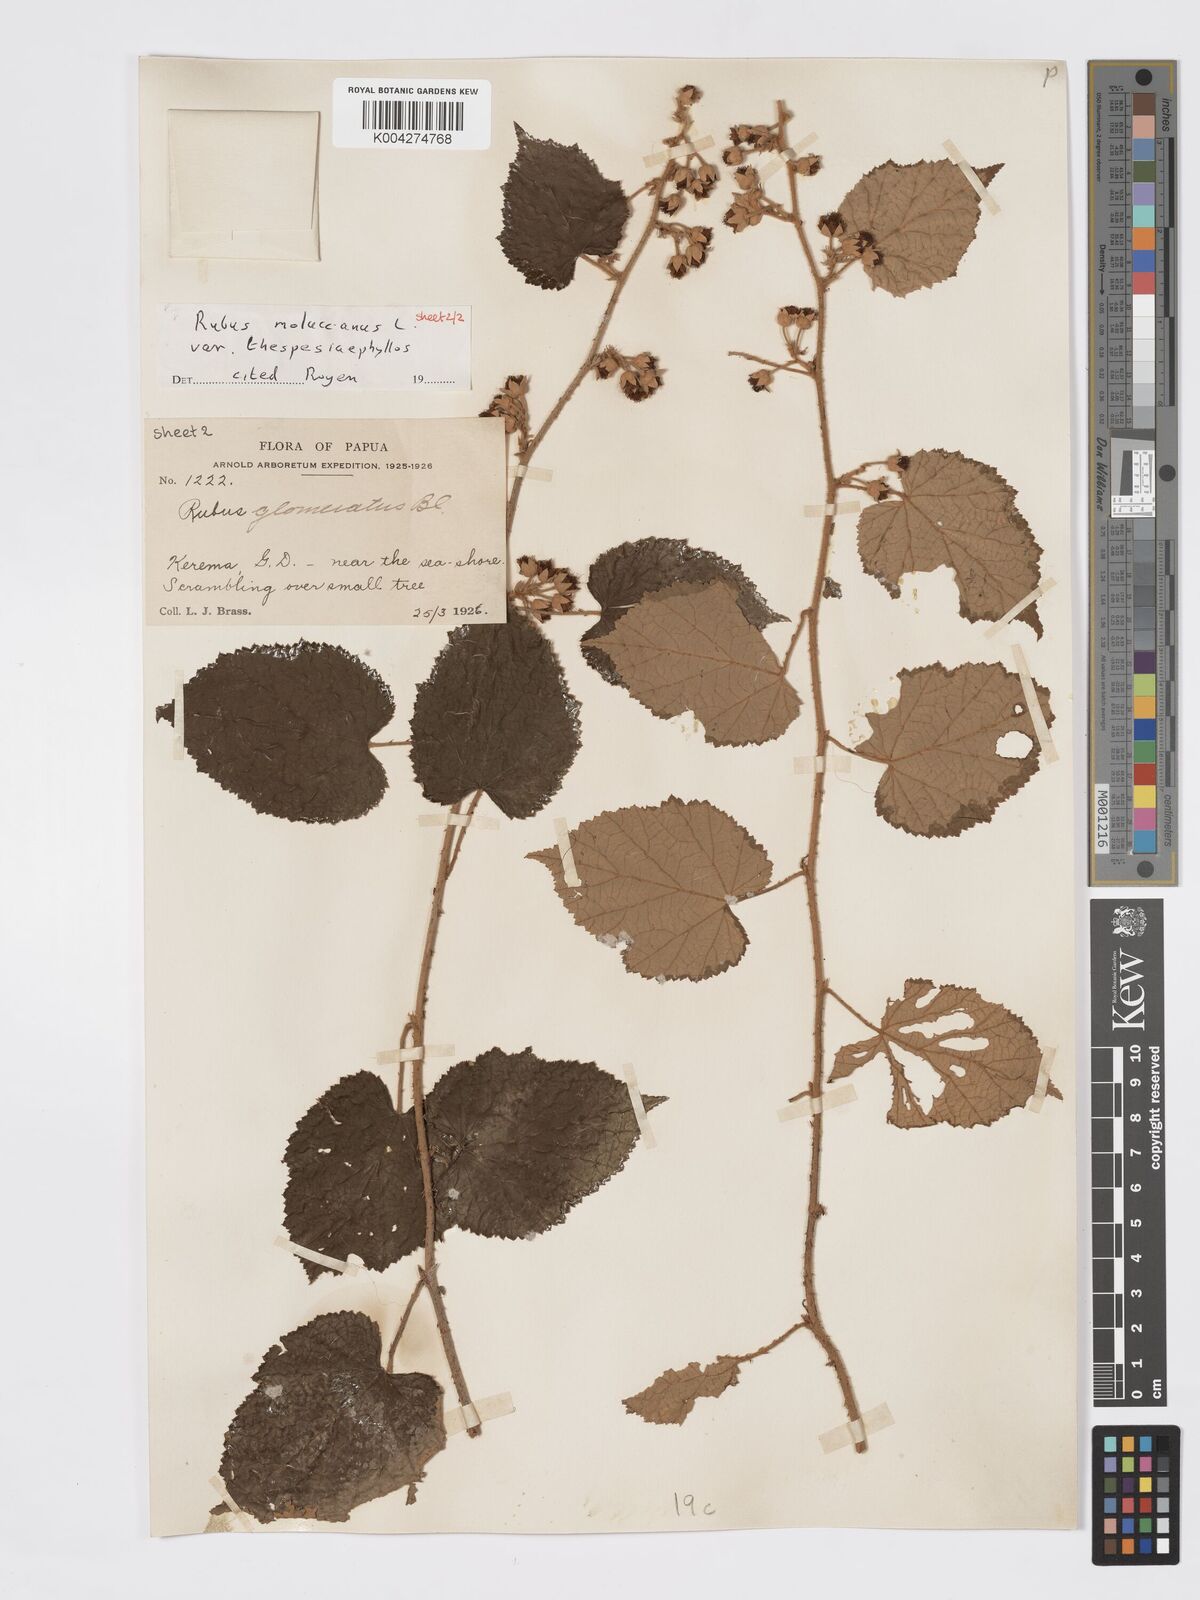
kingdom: Plantae
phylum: Tracheophyta
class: Magnoliopsida
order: Rosales
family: Rosaceae
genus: Rubus
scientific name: Rubus moluccanus
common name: Wild raspberry
